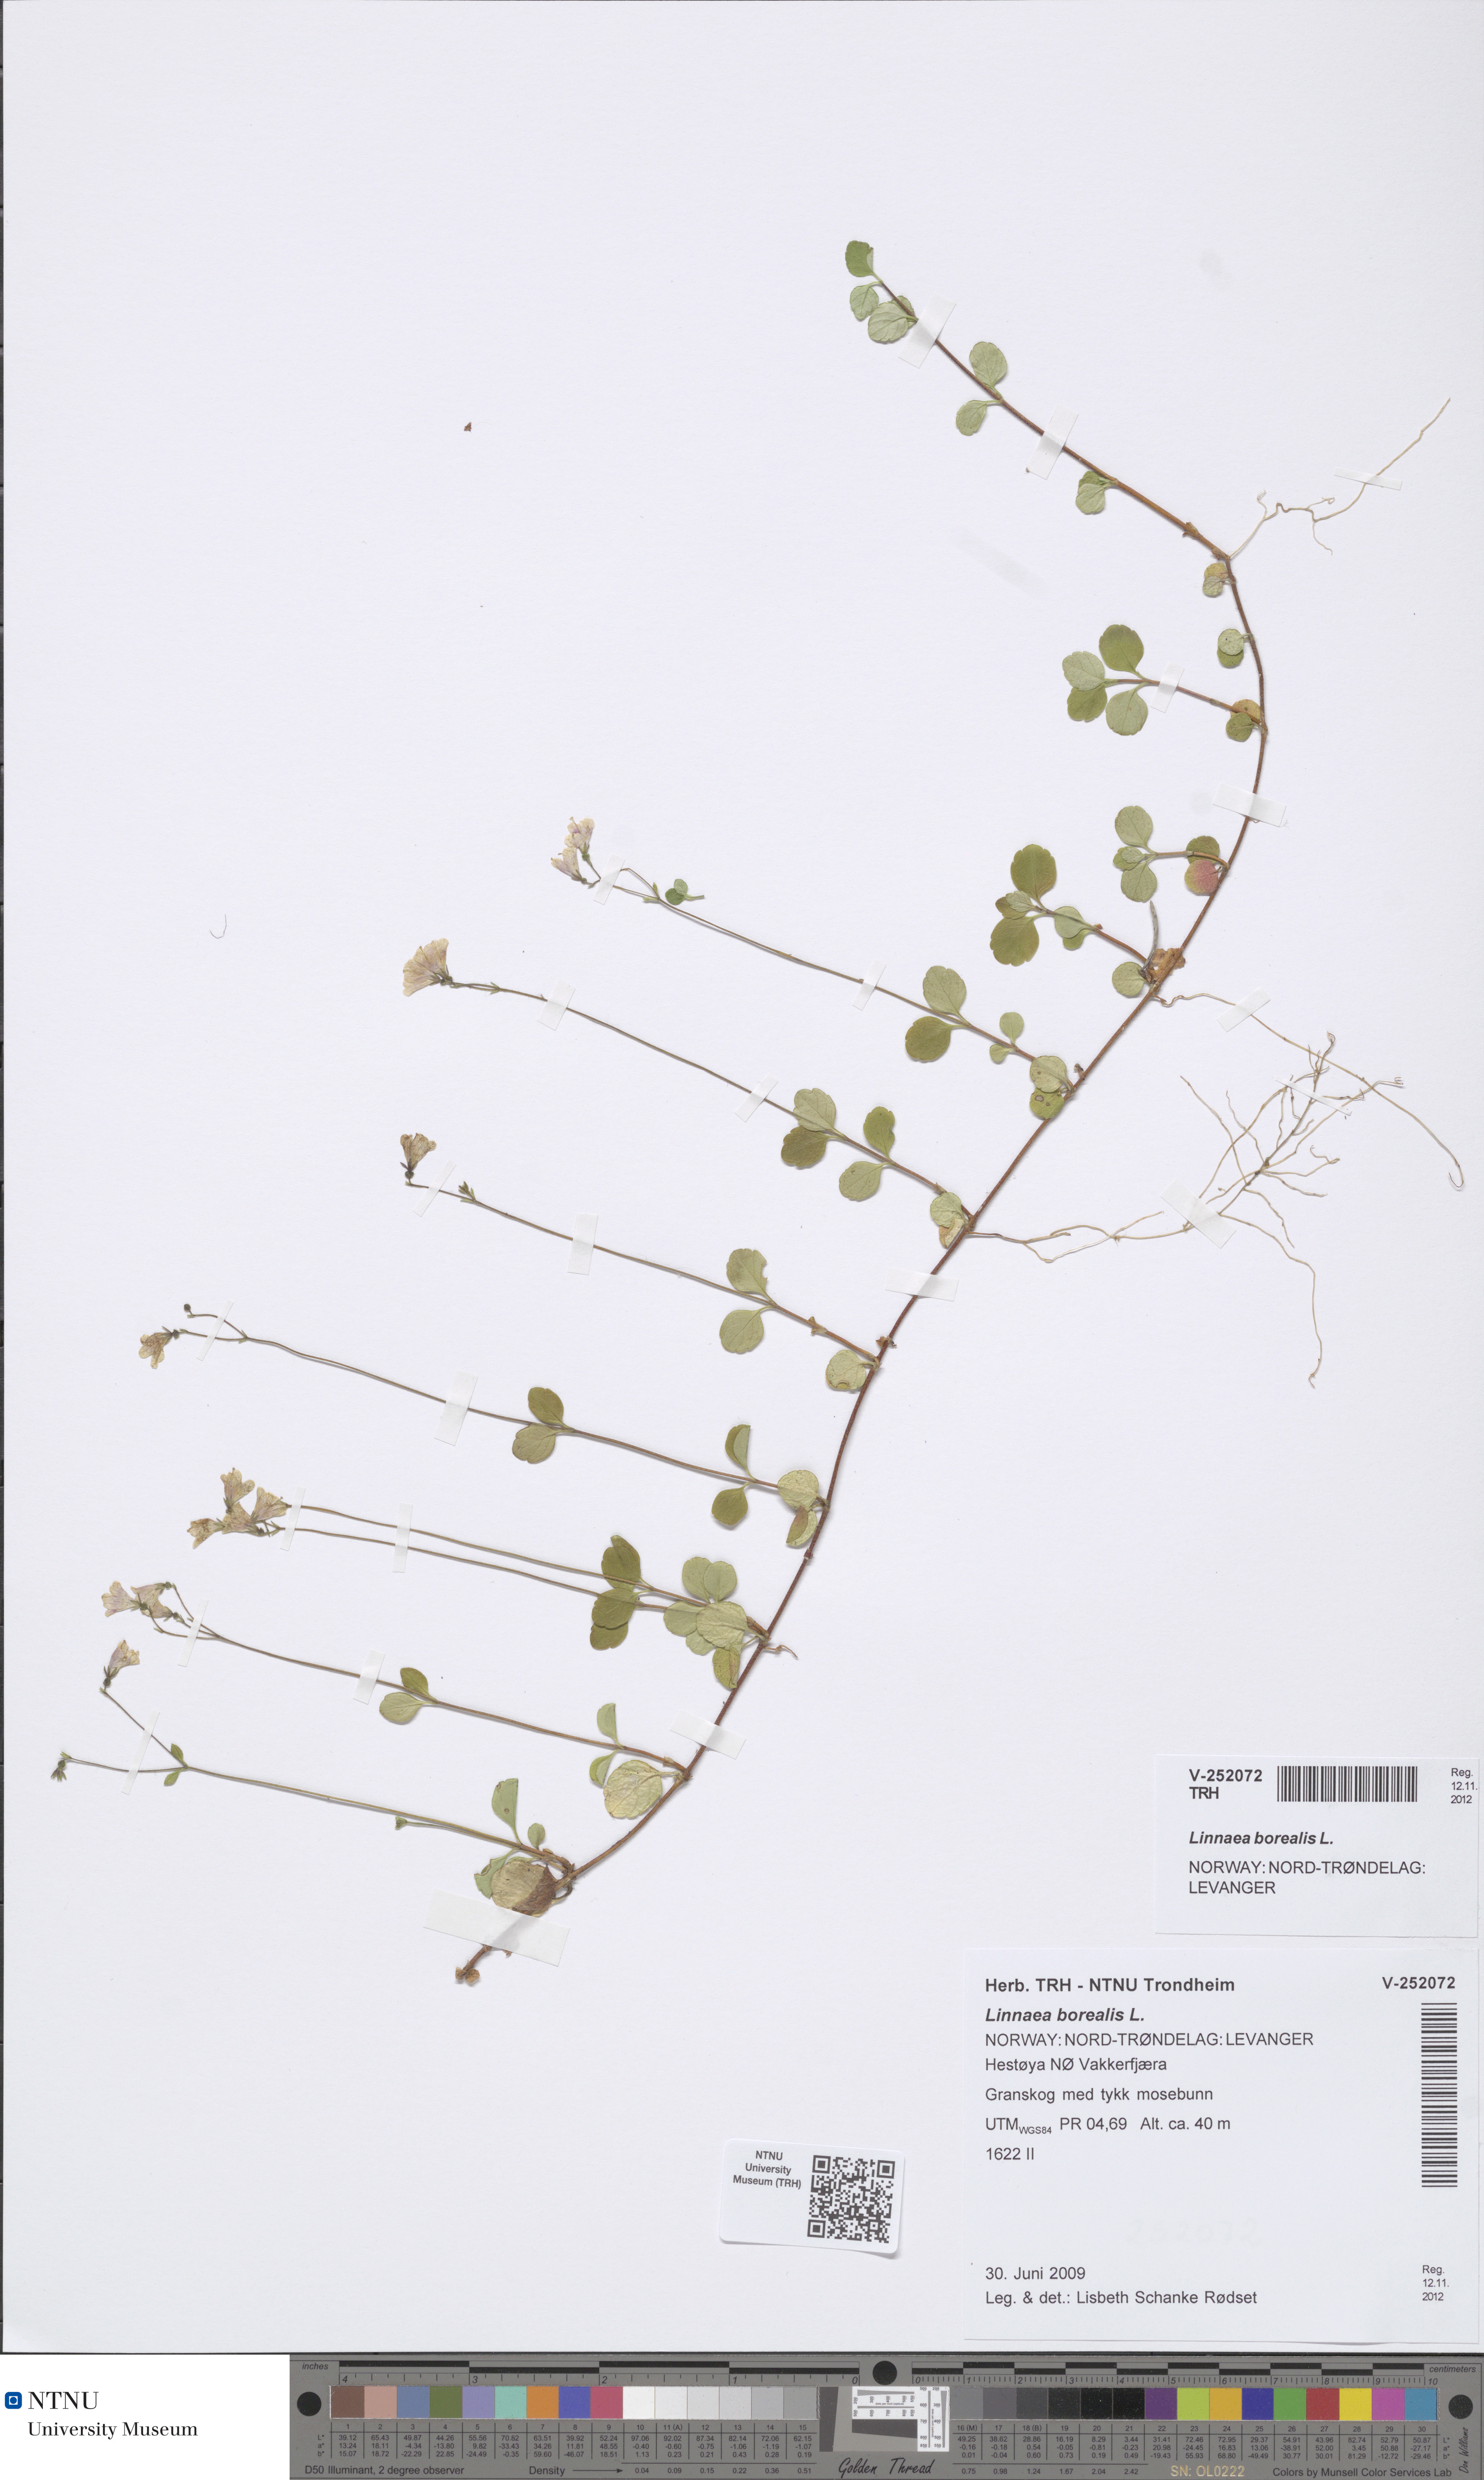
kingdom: Plantae
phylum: Tracheophyta
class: Magnoliopsida
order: Dipsacales
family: Caprifoliaceae
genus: Linnaea
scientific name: Linnaea borealis
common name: Twinflower
